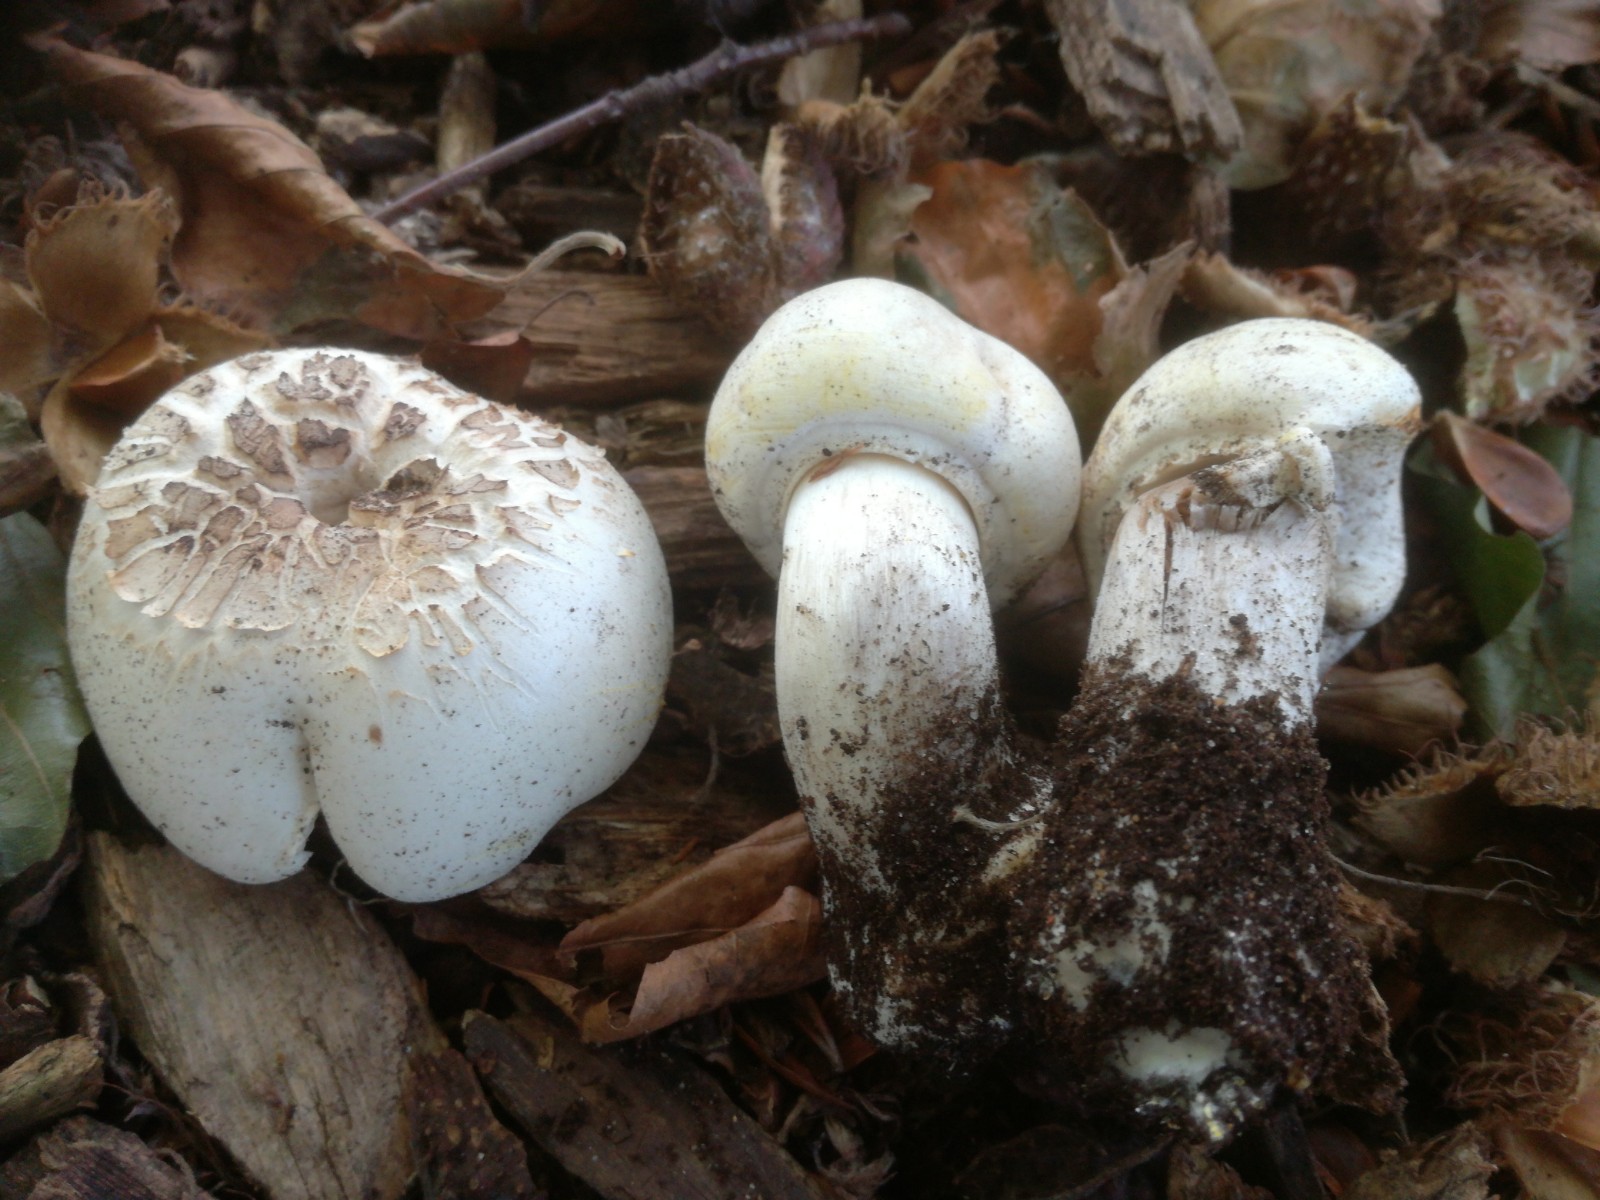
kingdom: Fungi
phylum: Basidiomycota
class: Agaricomycetes
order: Agaricales
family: Agaricaceae
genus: Agaricus
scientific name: Agaricus xanthodermus
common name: karbol-champignon
